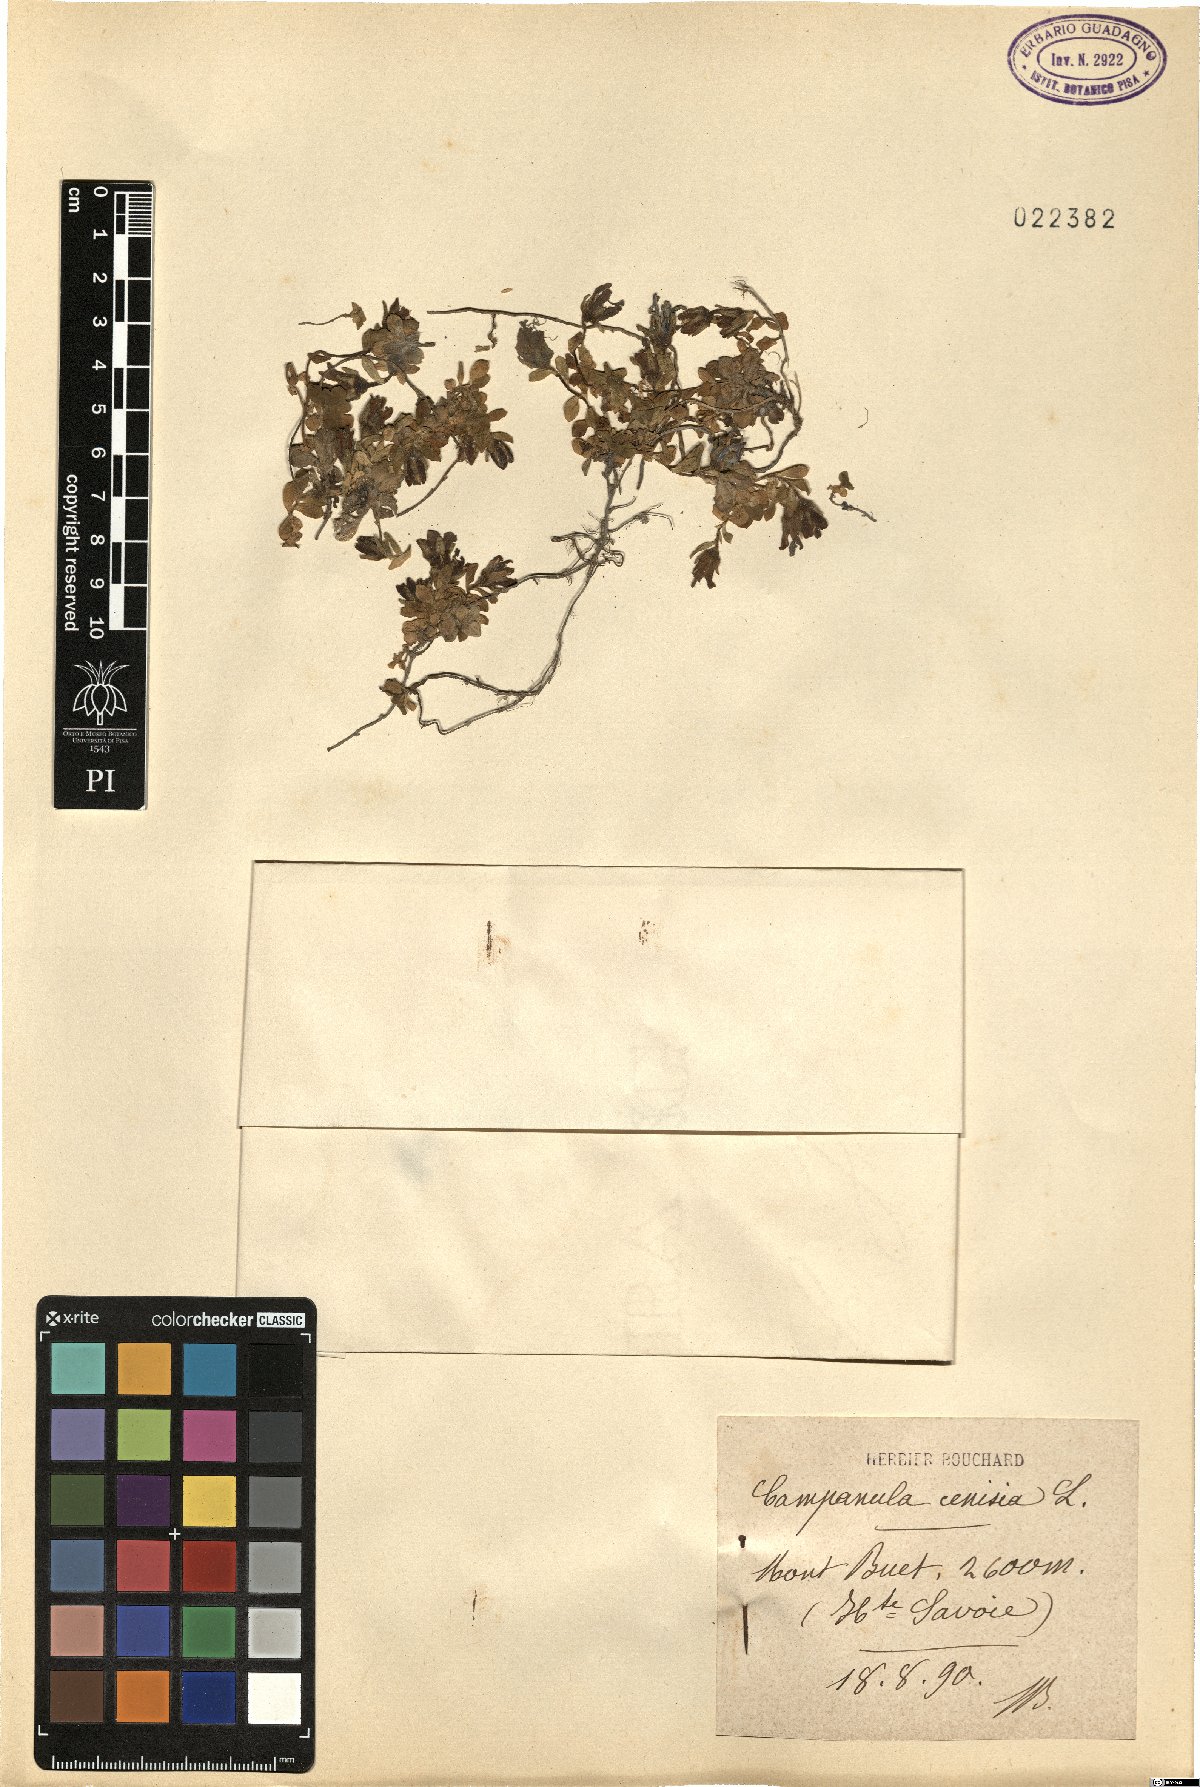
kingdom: Plantae
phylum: Tracheophyta
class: Magnoliopsida
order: Asterales
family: Campanulaceae
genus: Campanula
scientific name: Campanula cenisia
